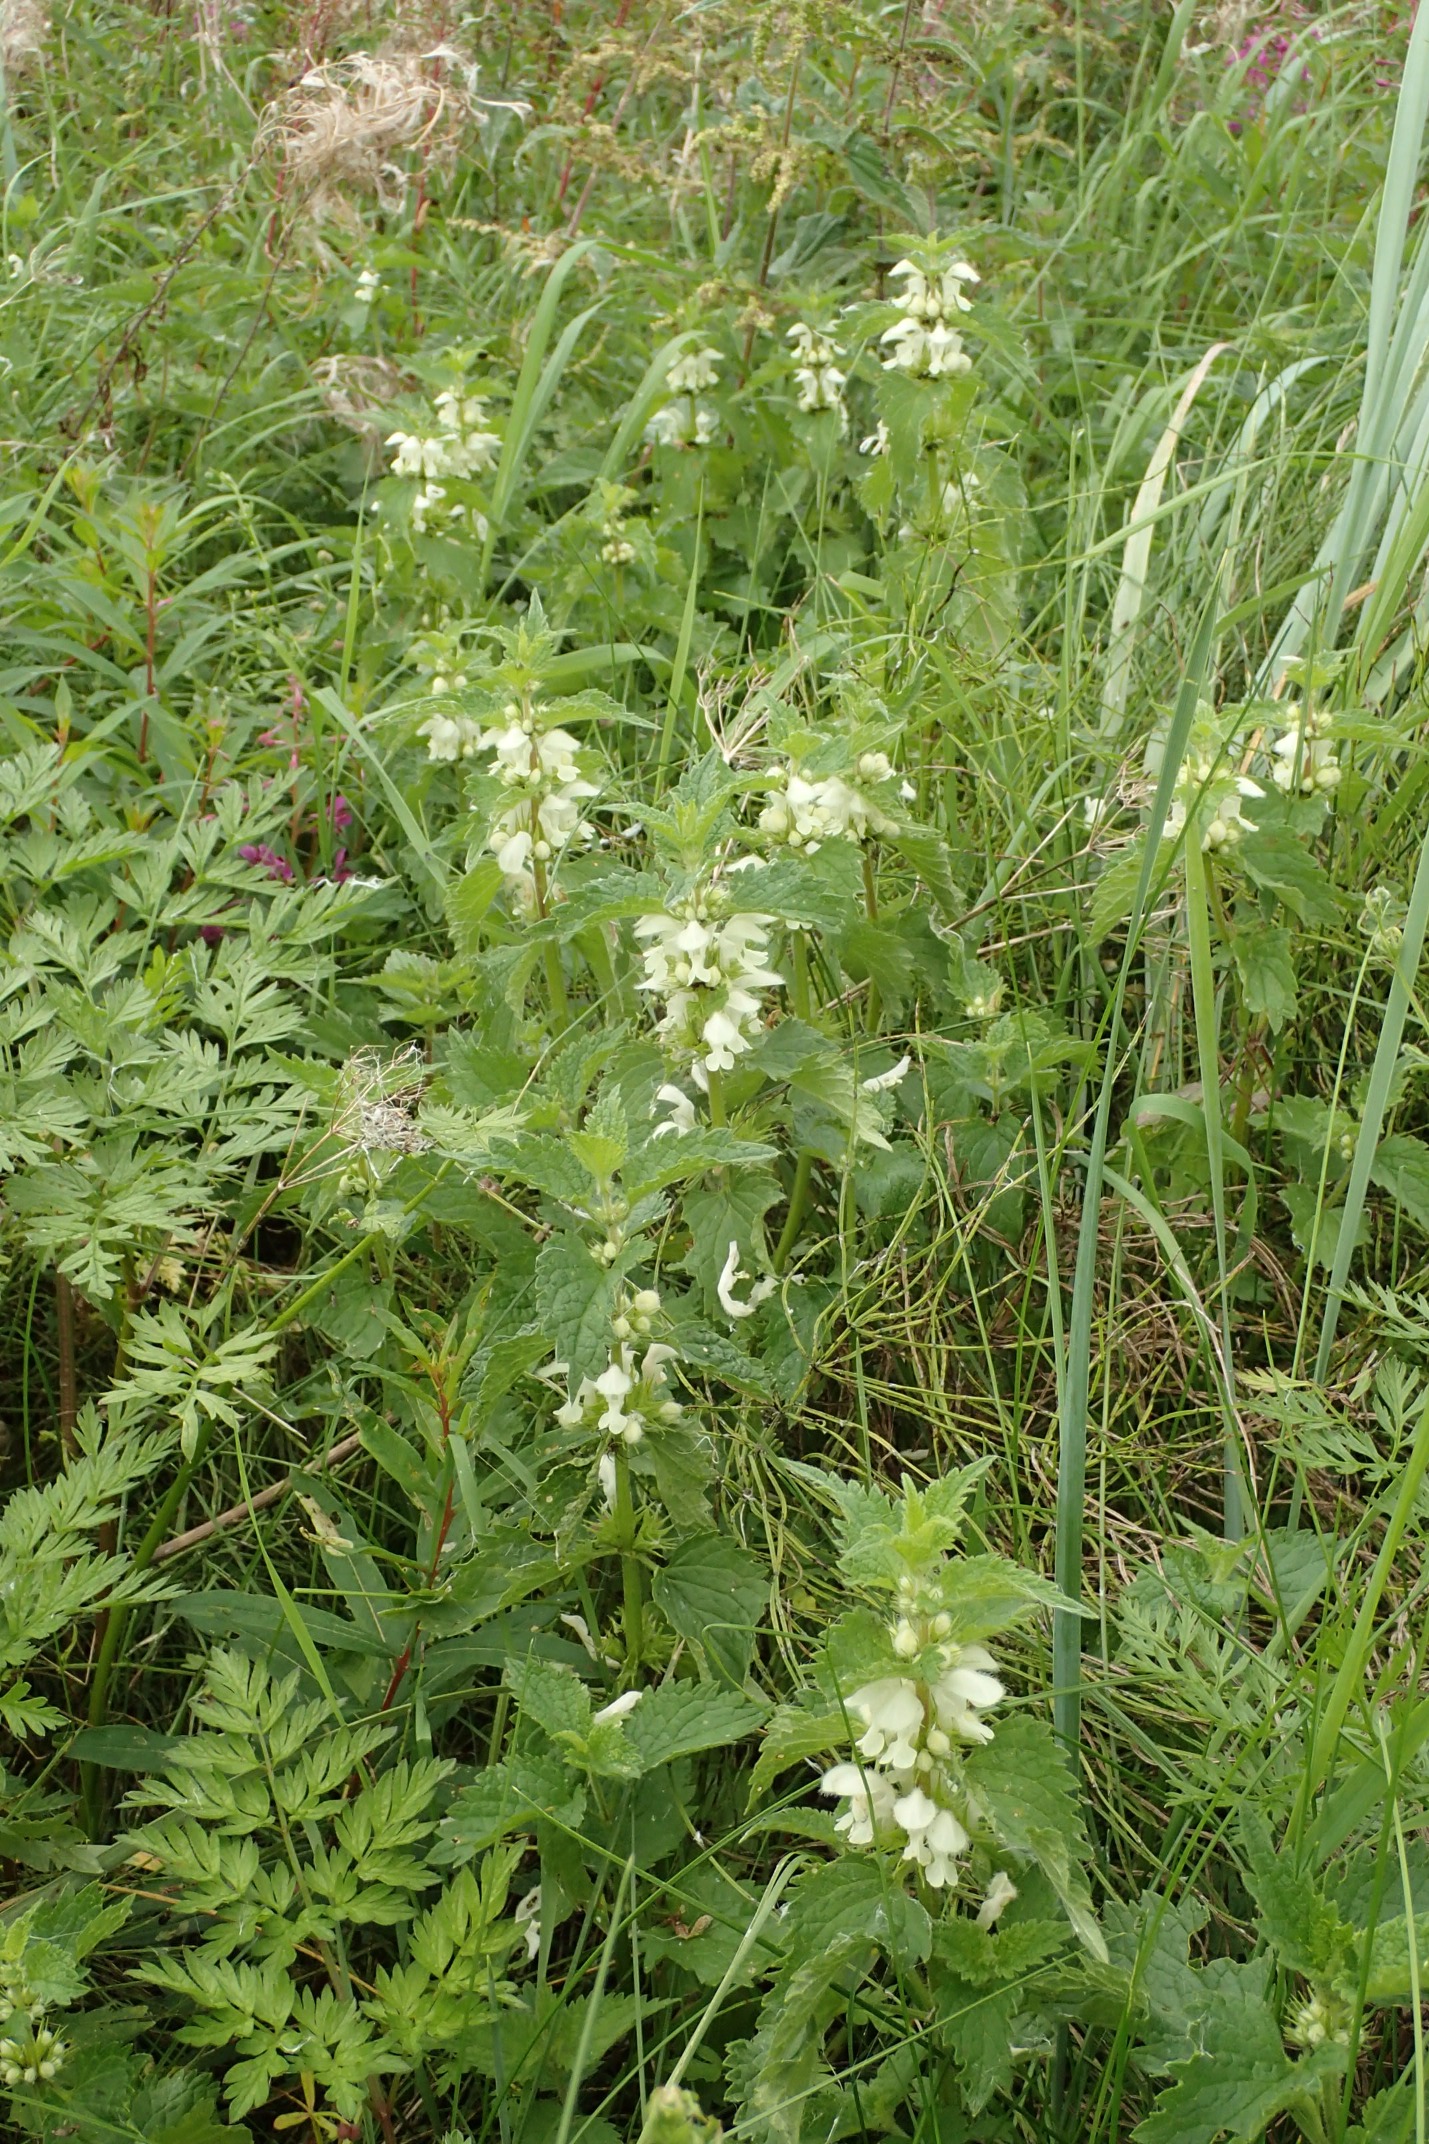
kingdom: Plantae
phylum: Tracheophyta
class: Magnoliopsida
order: Lamiales
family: Lamiaceae
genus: Lamium
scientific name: Lamium album
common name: Døvnælde
